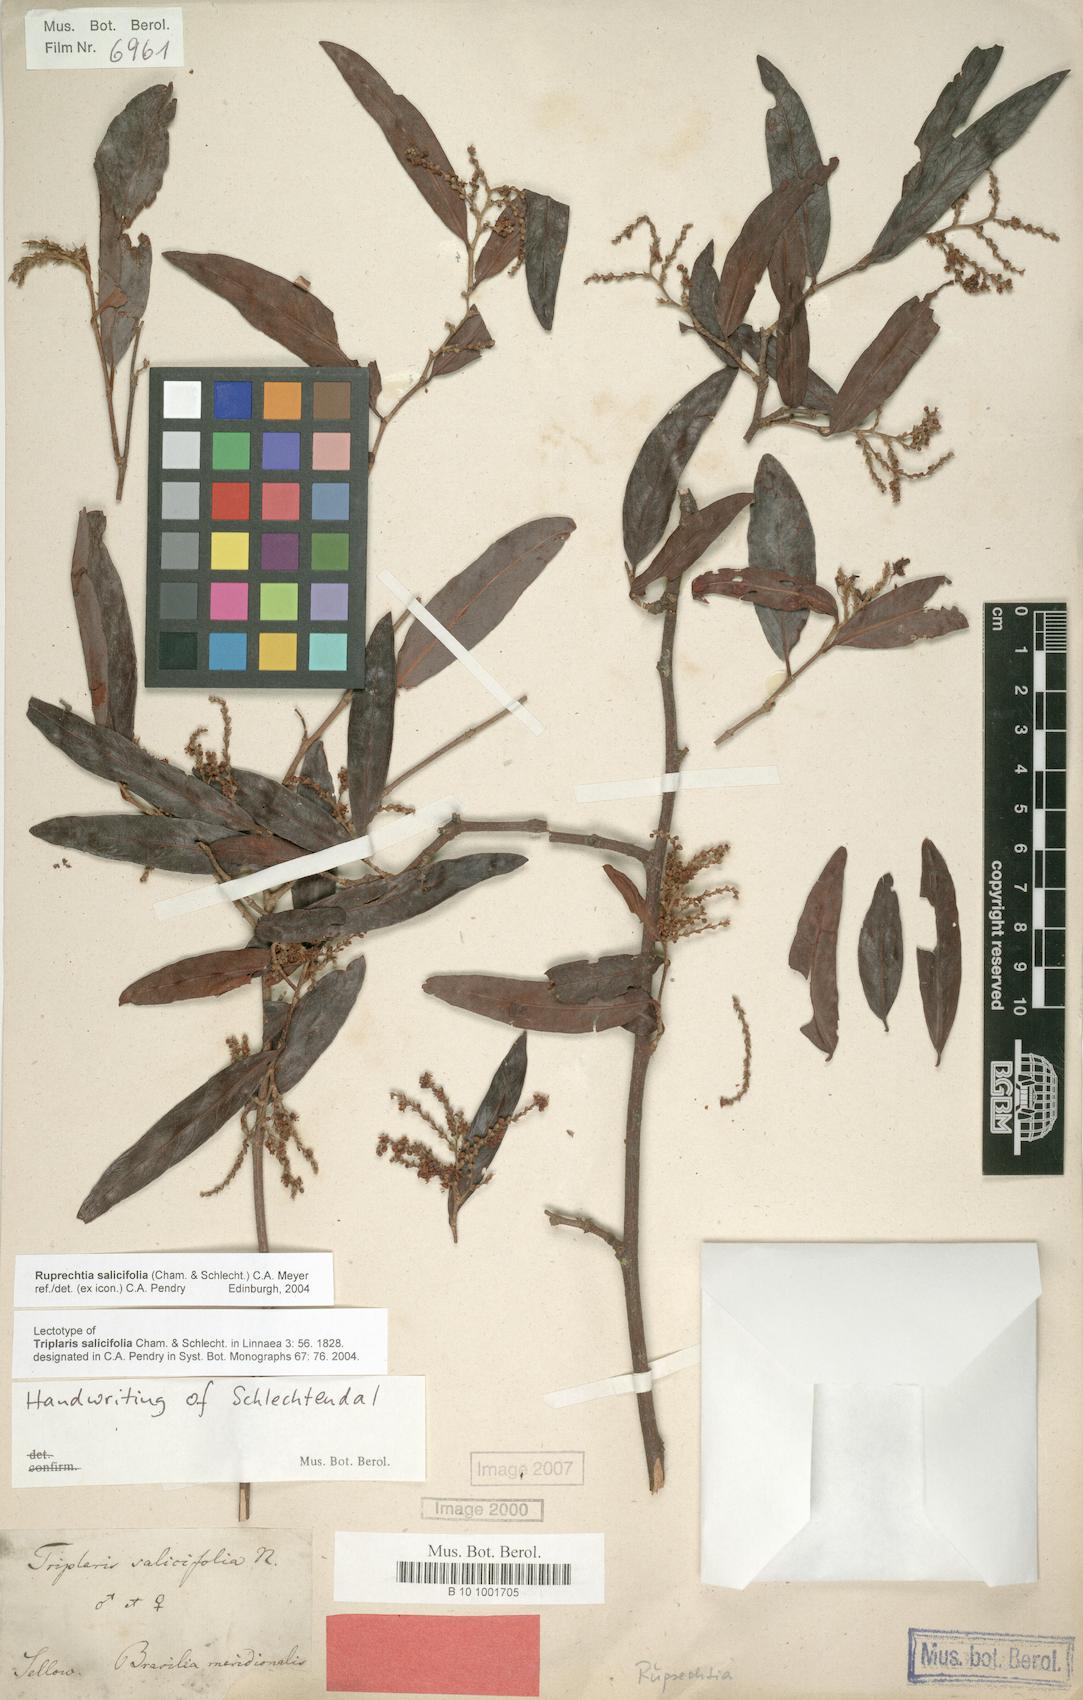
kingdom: Plantae
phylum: Tracheophyta
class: Magnoliopsida
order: Caryophyllales
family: Polygonaceae
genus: Ruprechtia
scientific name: Ruprechtia salicifolia
